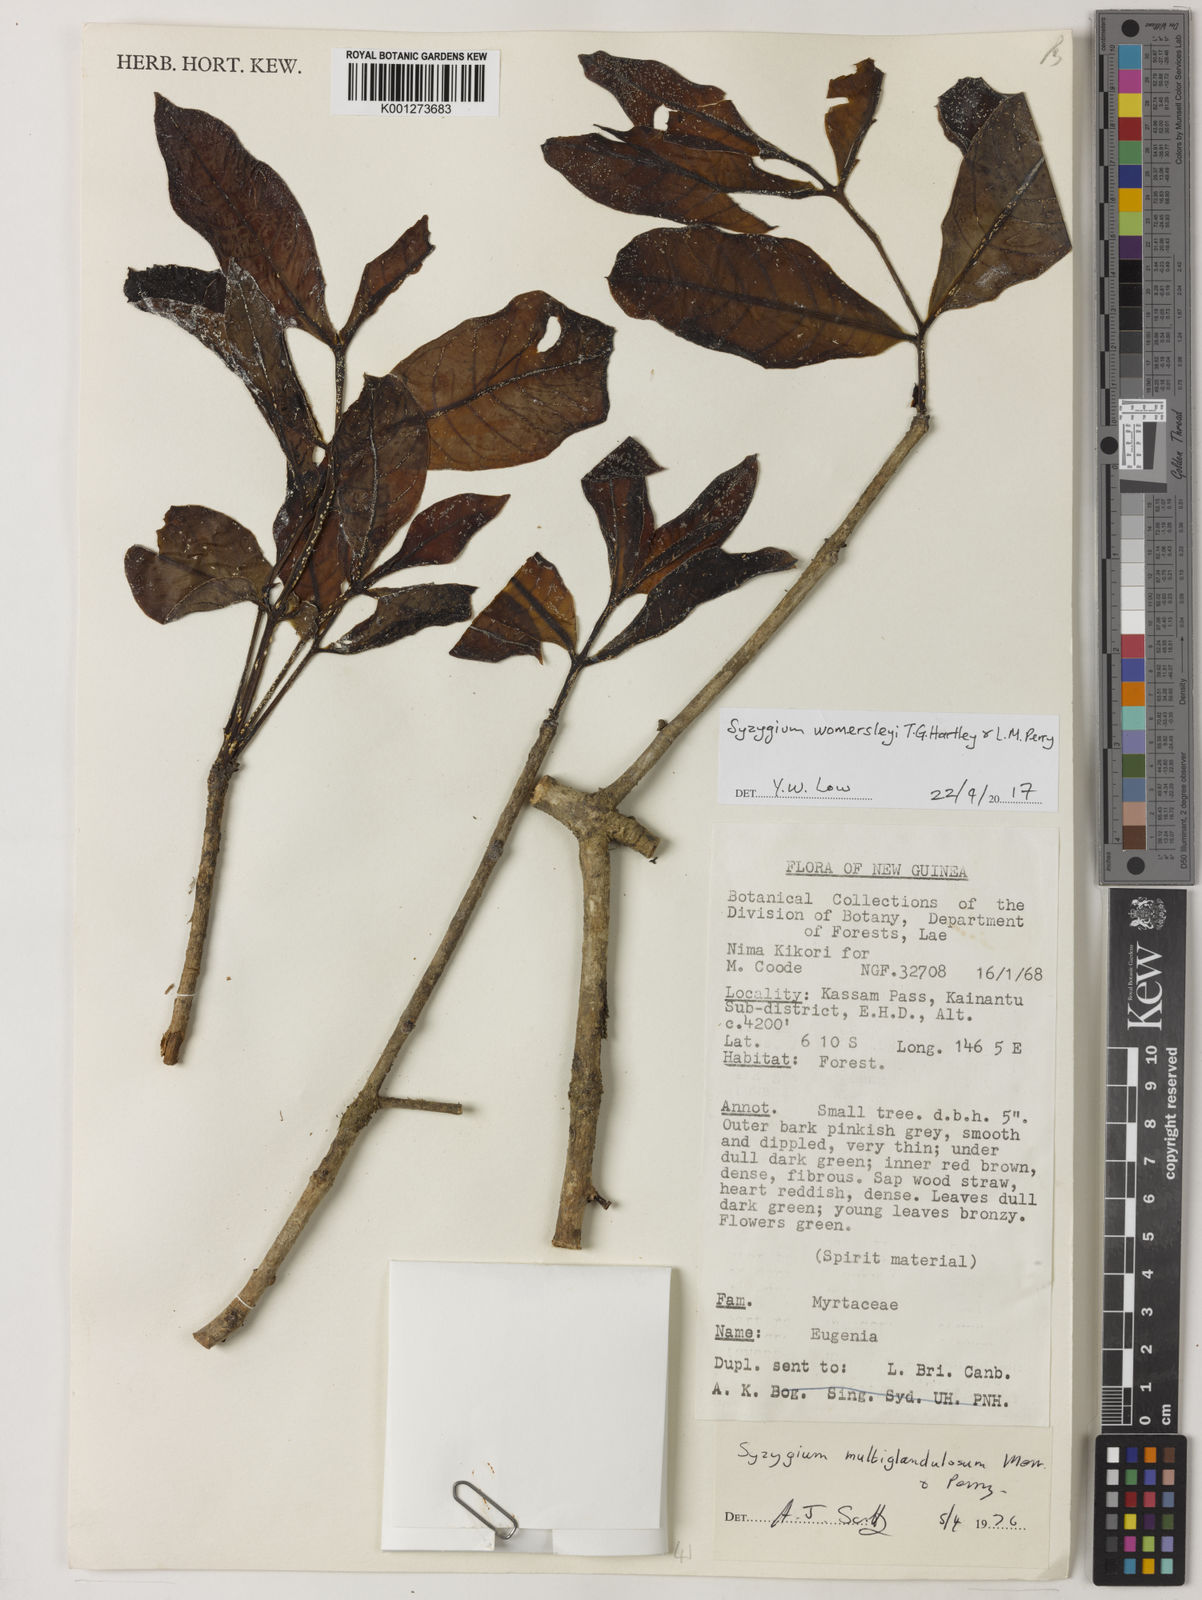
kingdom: Plantae
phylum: Tracheophyta
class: Magnoliopsida
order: Myrtales
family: Myrtaceae
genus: Syzygium
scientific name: Syzygium womersleyi
